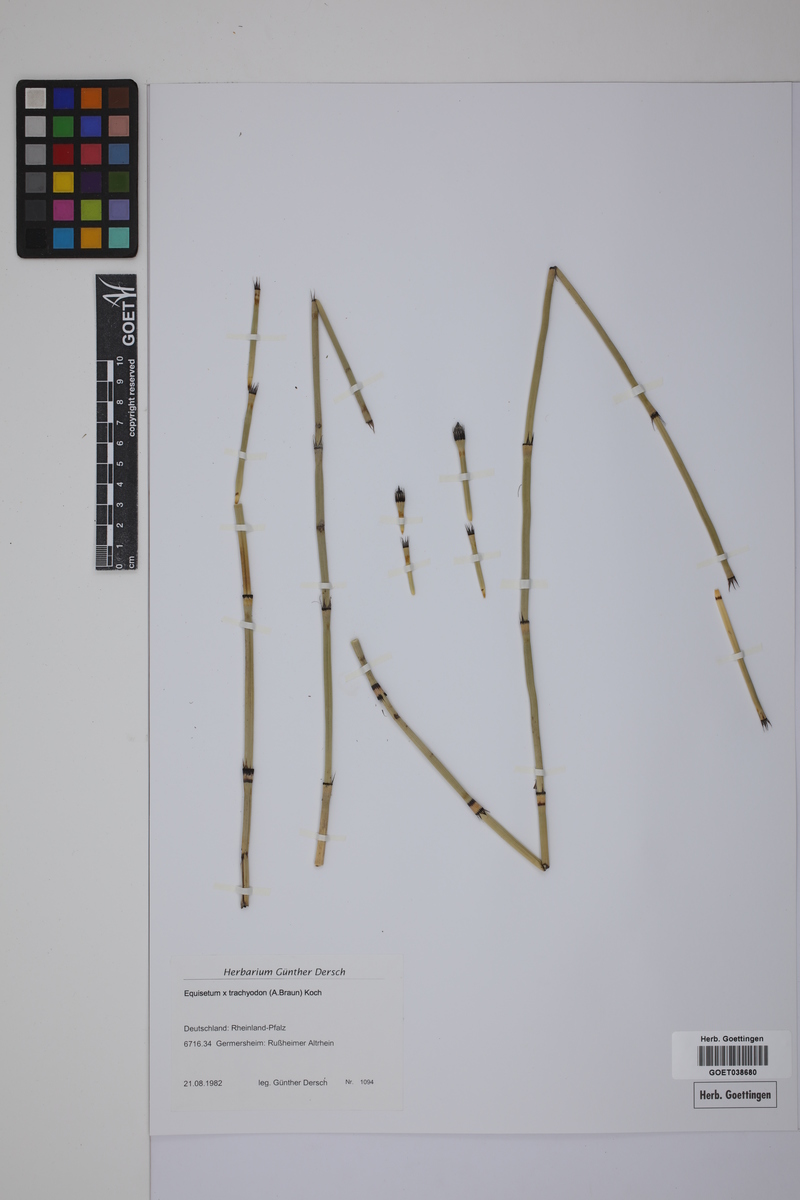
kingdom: Plantae
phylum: Tracheophyta
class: Polypodiopsida
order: Equisetales
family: Equisetaceae
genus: Equisetum
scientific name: Equisetum hyemale
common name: Rough horsetail
